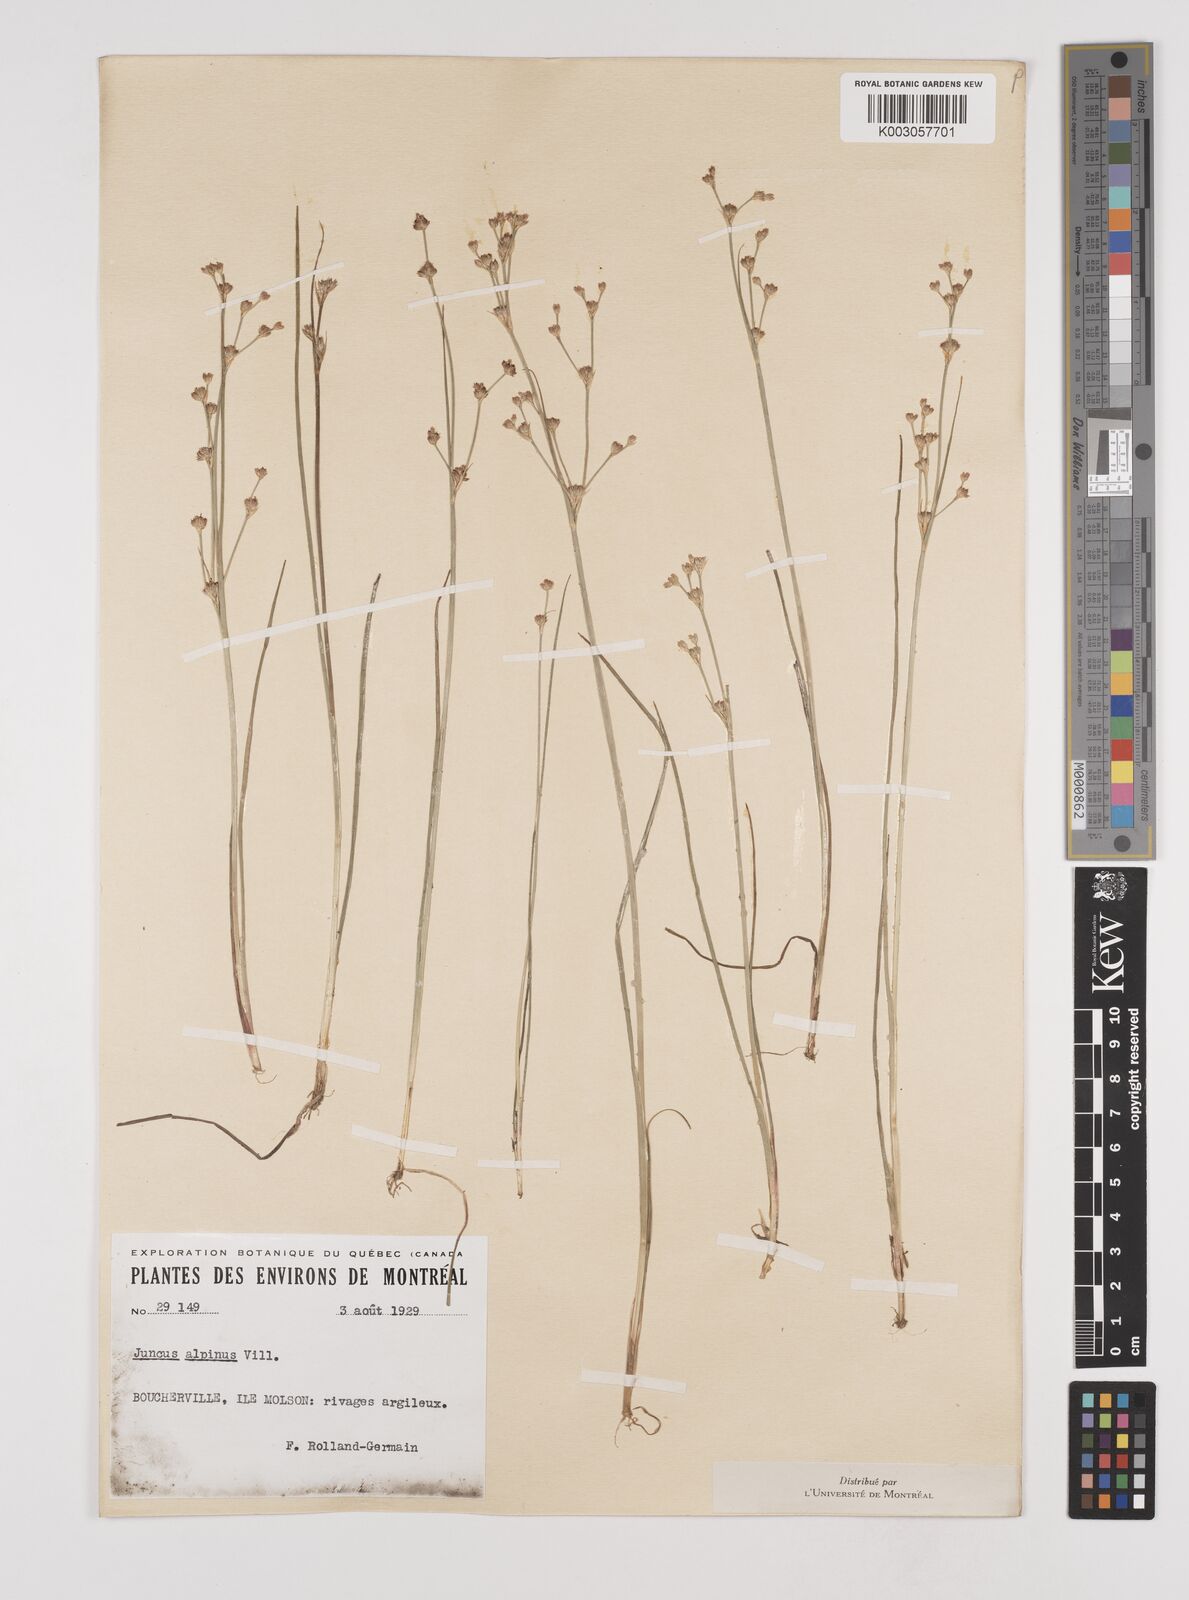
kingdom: Plantae
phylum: Tracheophyta
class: Liliopsida
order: Poales
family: Juncaceae
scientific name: Juncaceae
